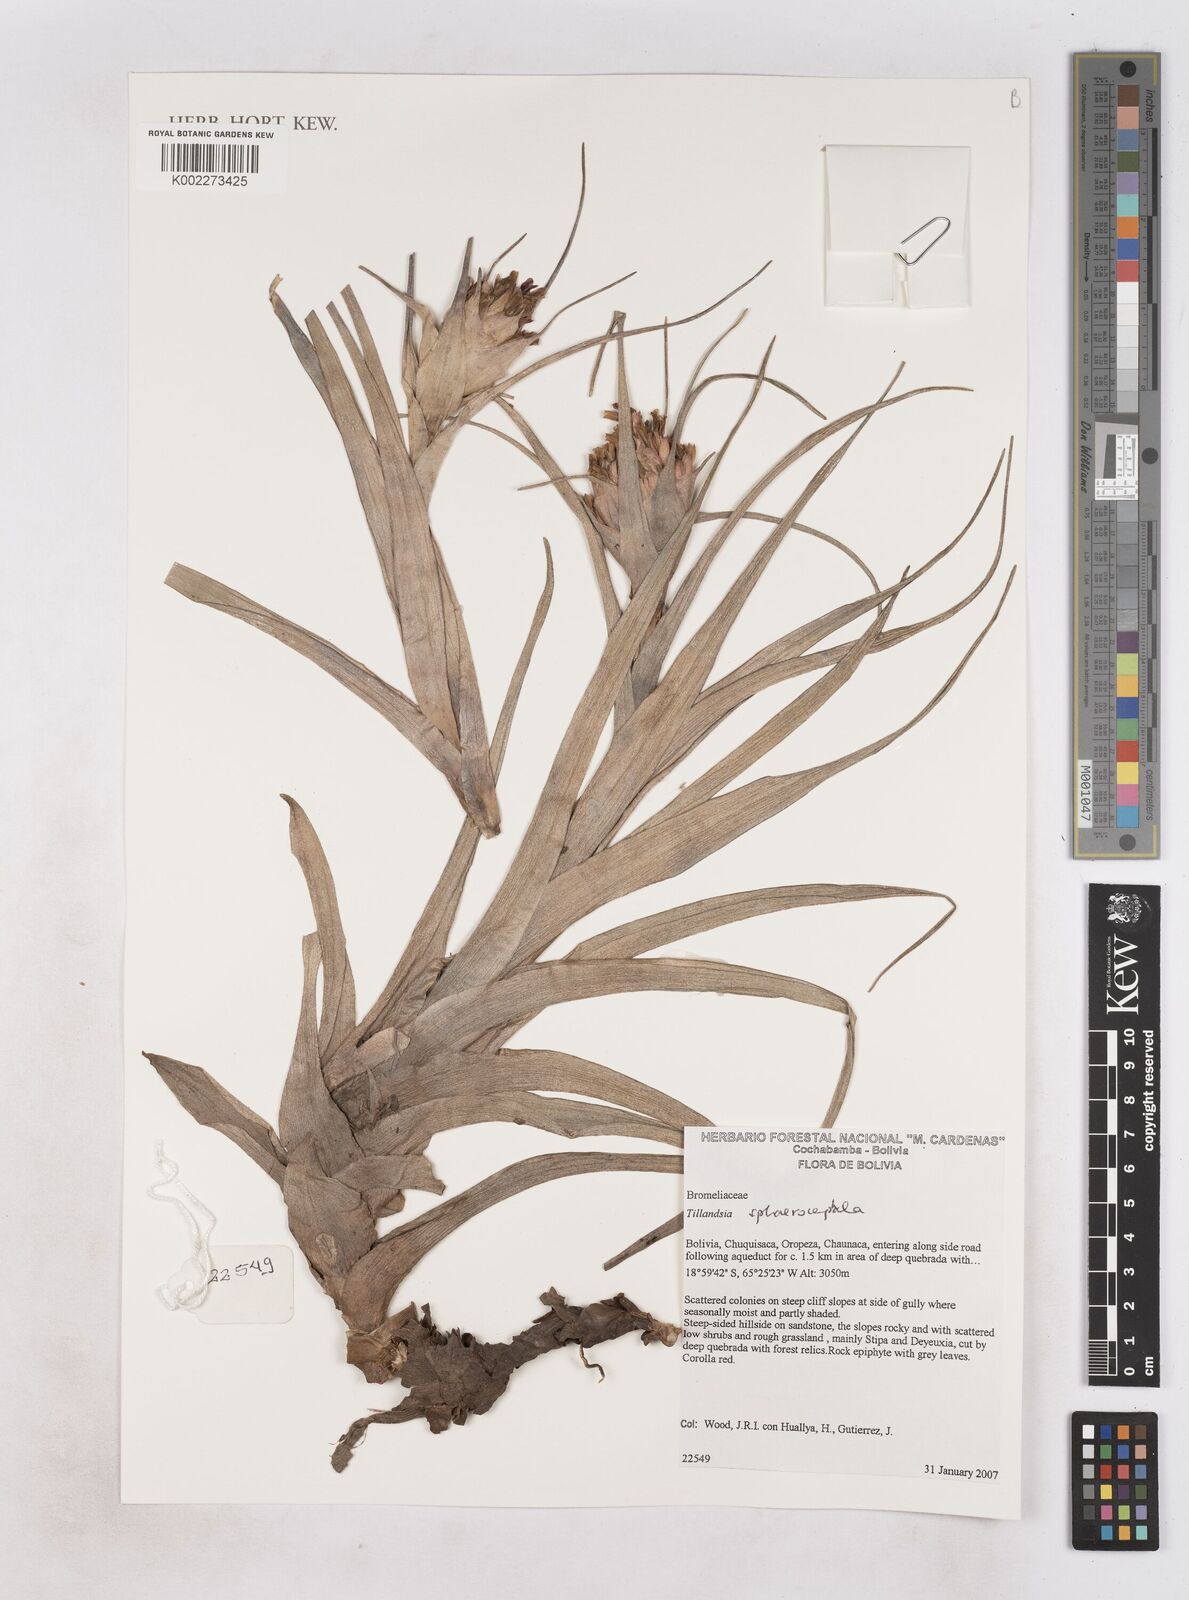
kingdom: Plantae
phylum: Tracheophyta
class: Liliopsida
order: Poales
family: Bromeliaceae
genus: Tillandsia
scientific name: Tillandsia sphaerocephala
